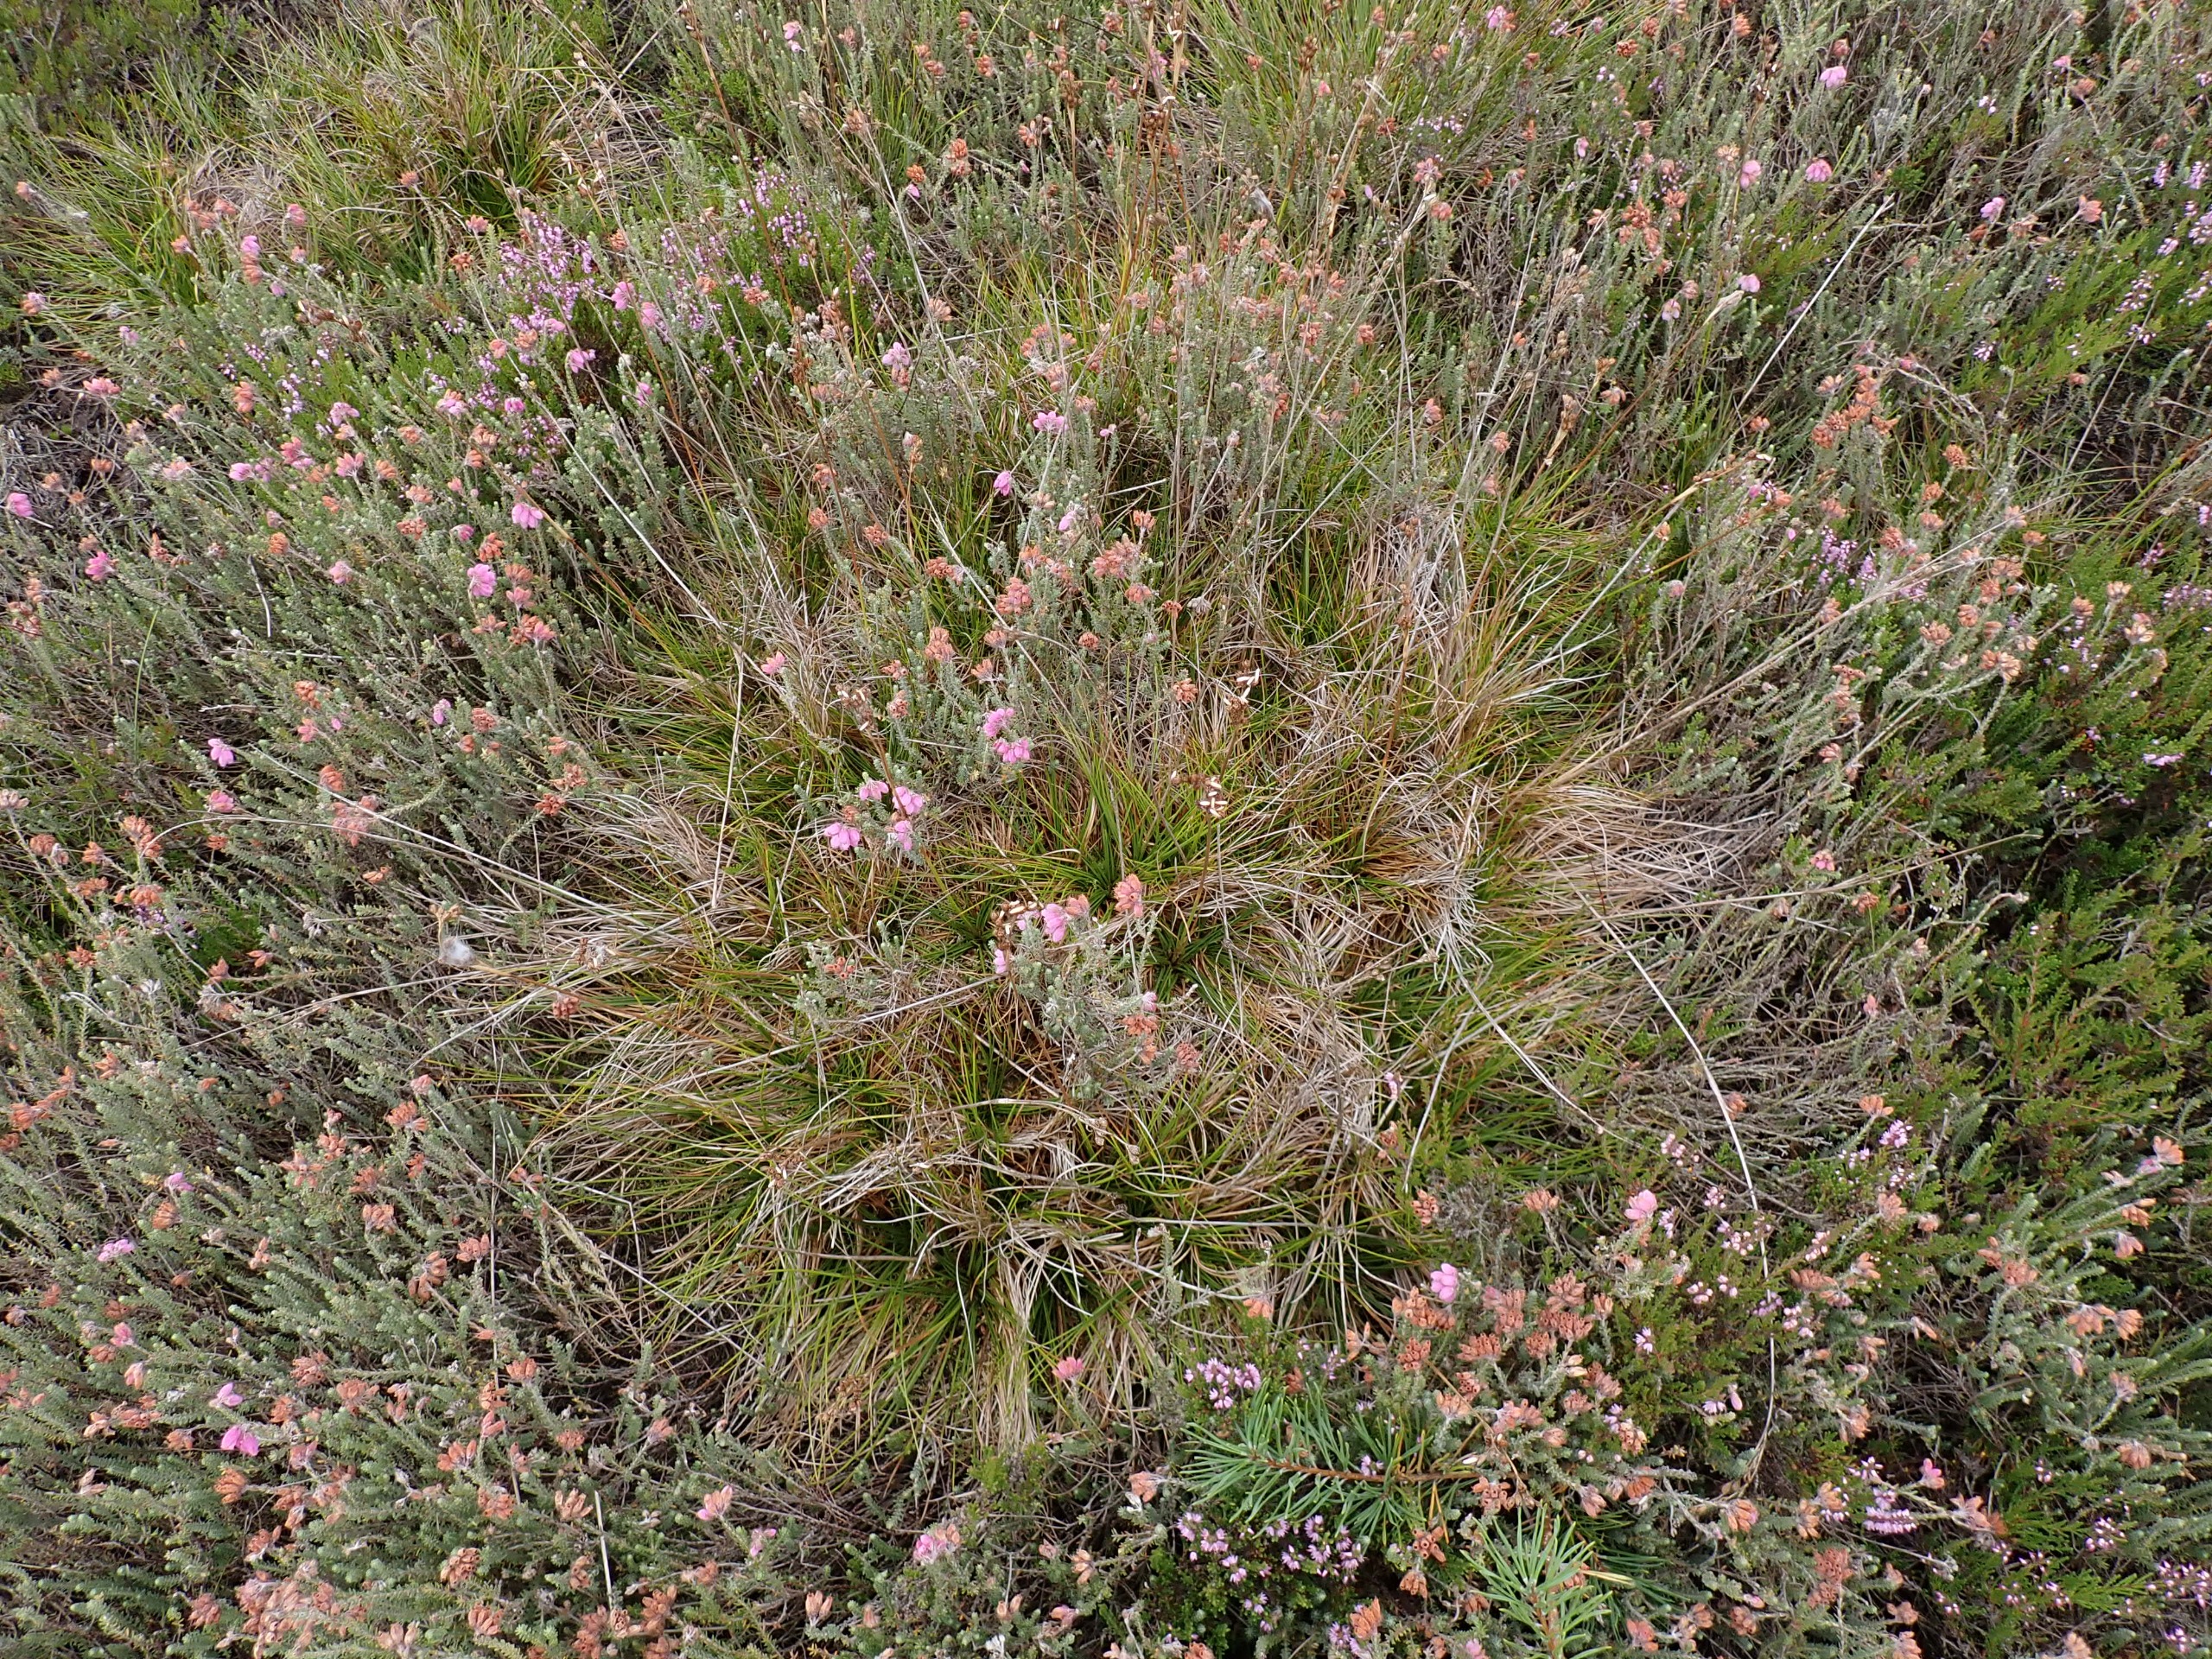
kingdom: Plantae
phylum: Tracheophyta
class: Liliopsida
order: Poales
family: Juncaceae
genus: Juncus
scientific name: Juncus squarrosus
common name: Børste-siv
